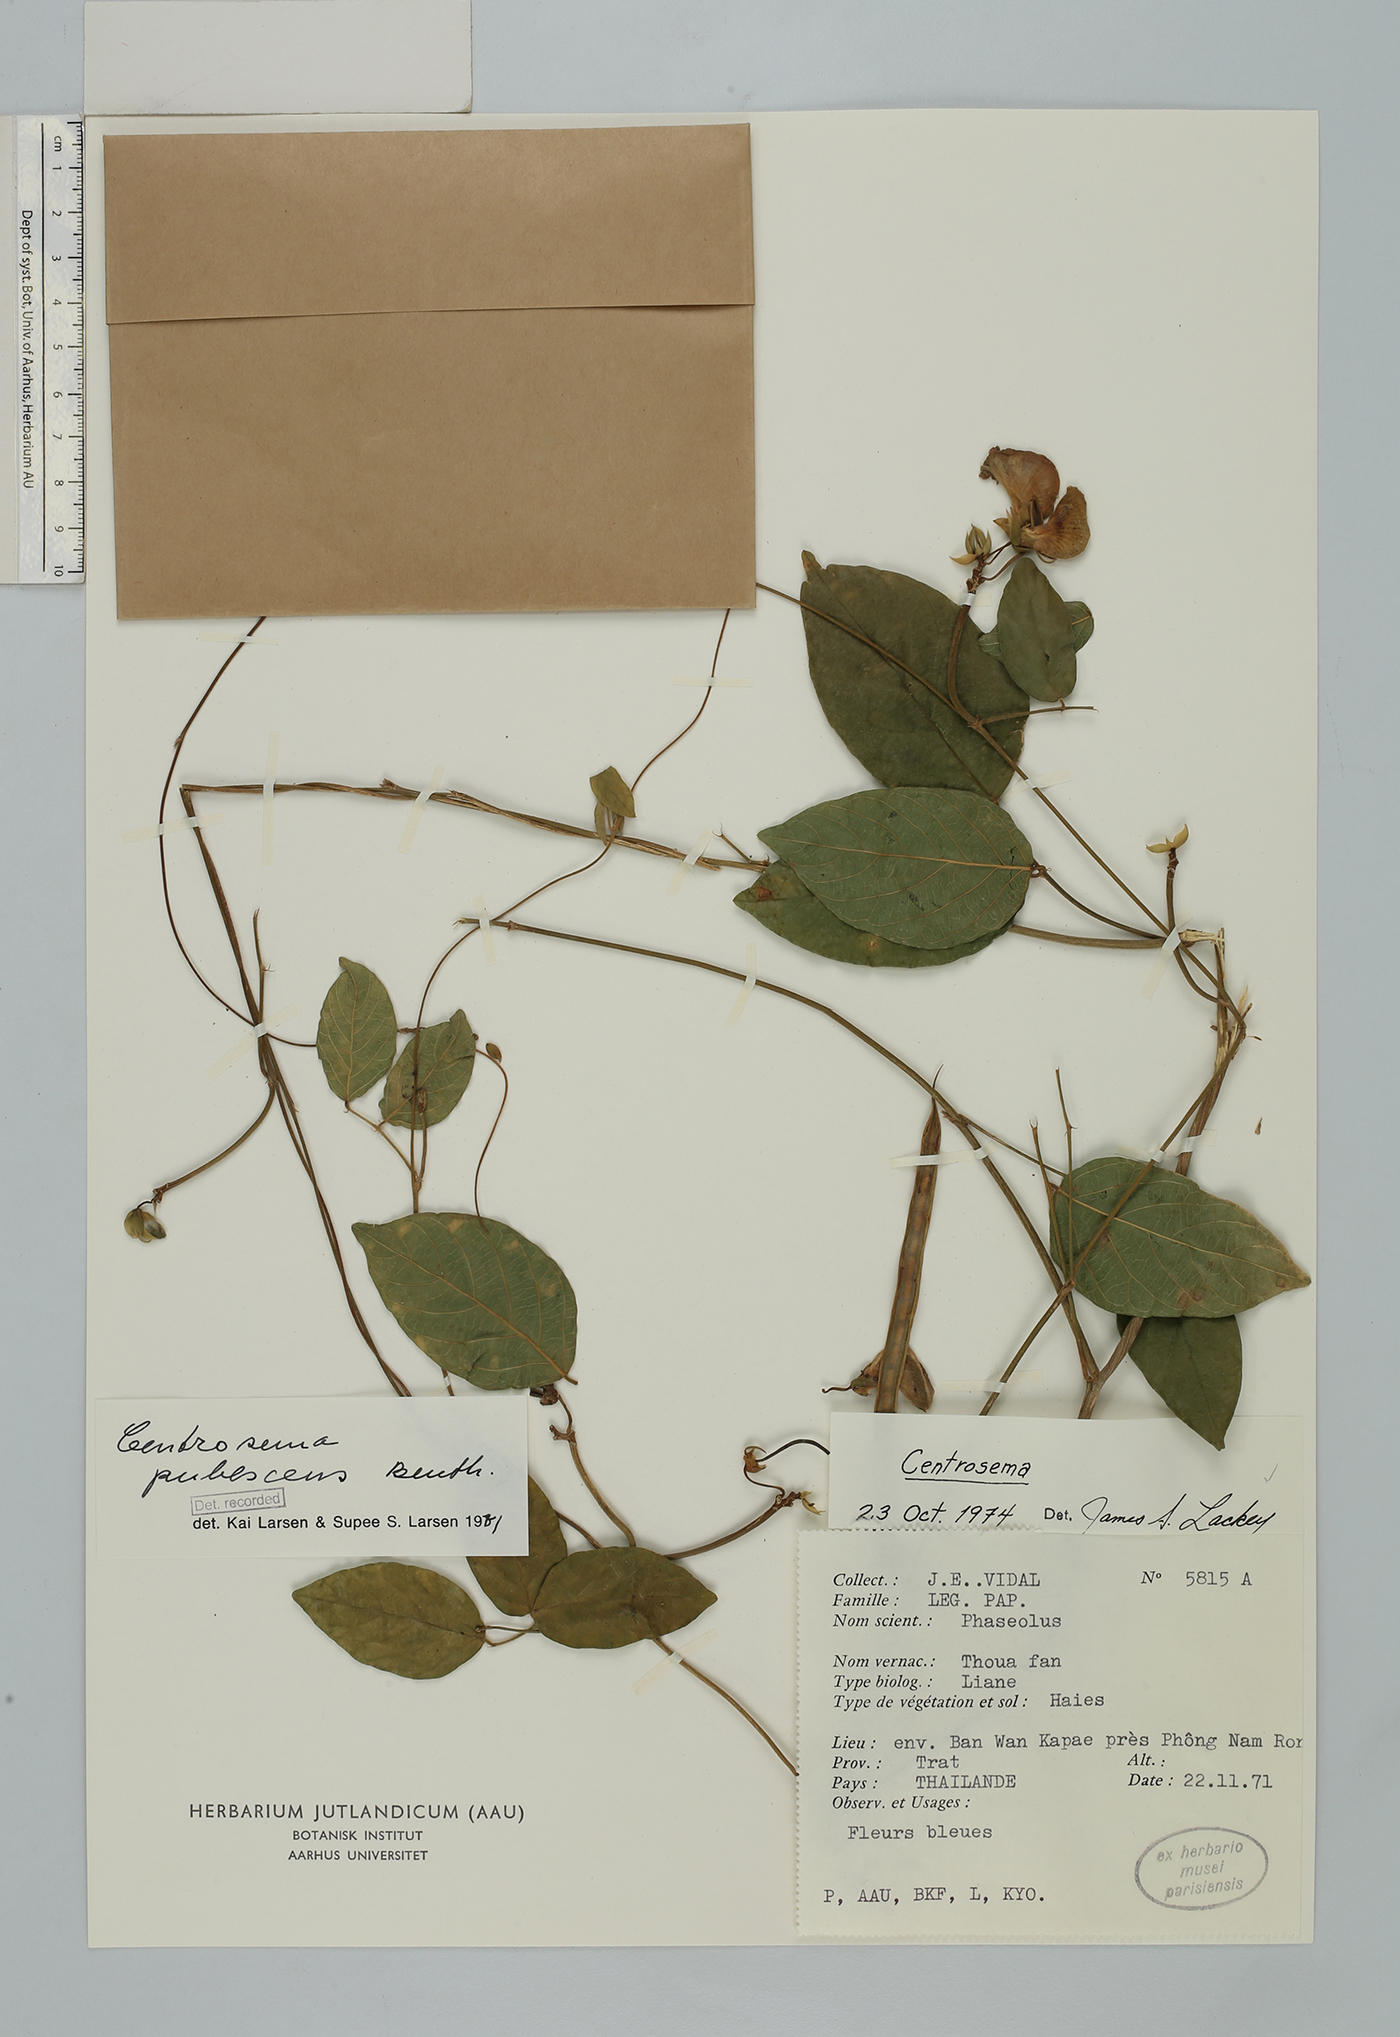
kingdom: Plantae
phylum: Tracheophyta
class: Magnoliopsida
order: Fabales
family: Fabaceae
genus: Centrosema
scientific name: Centrosema pubescens
